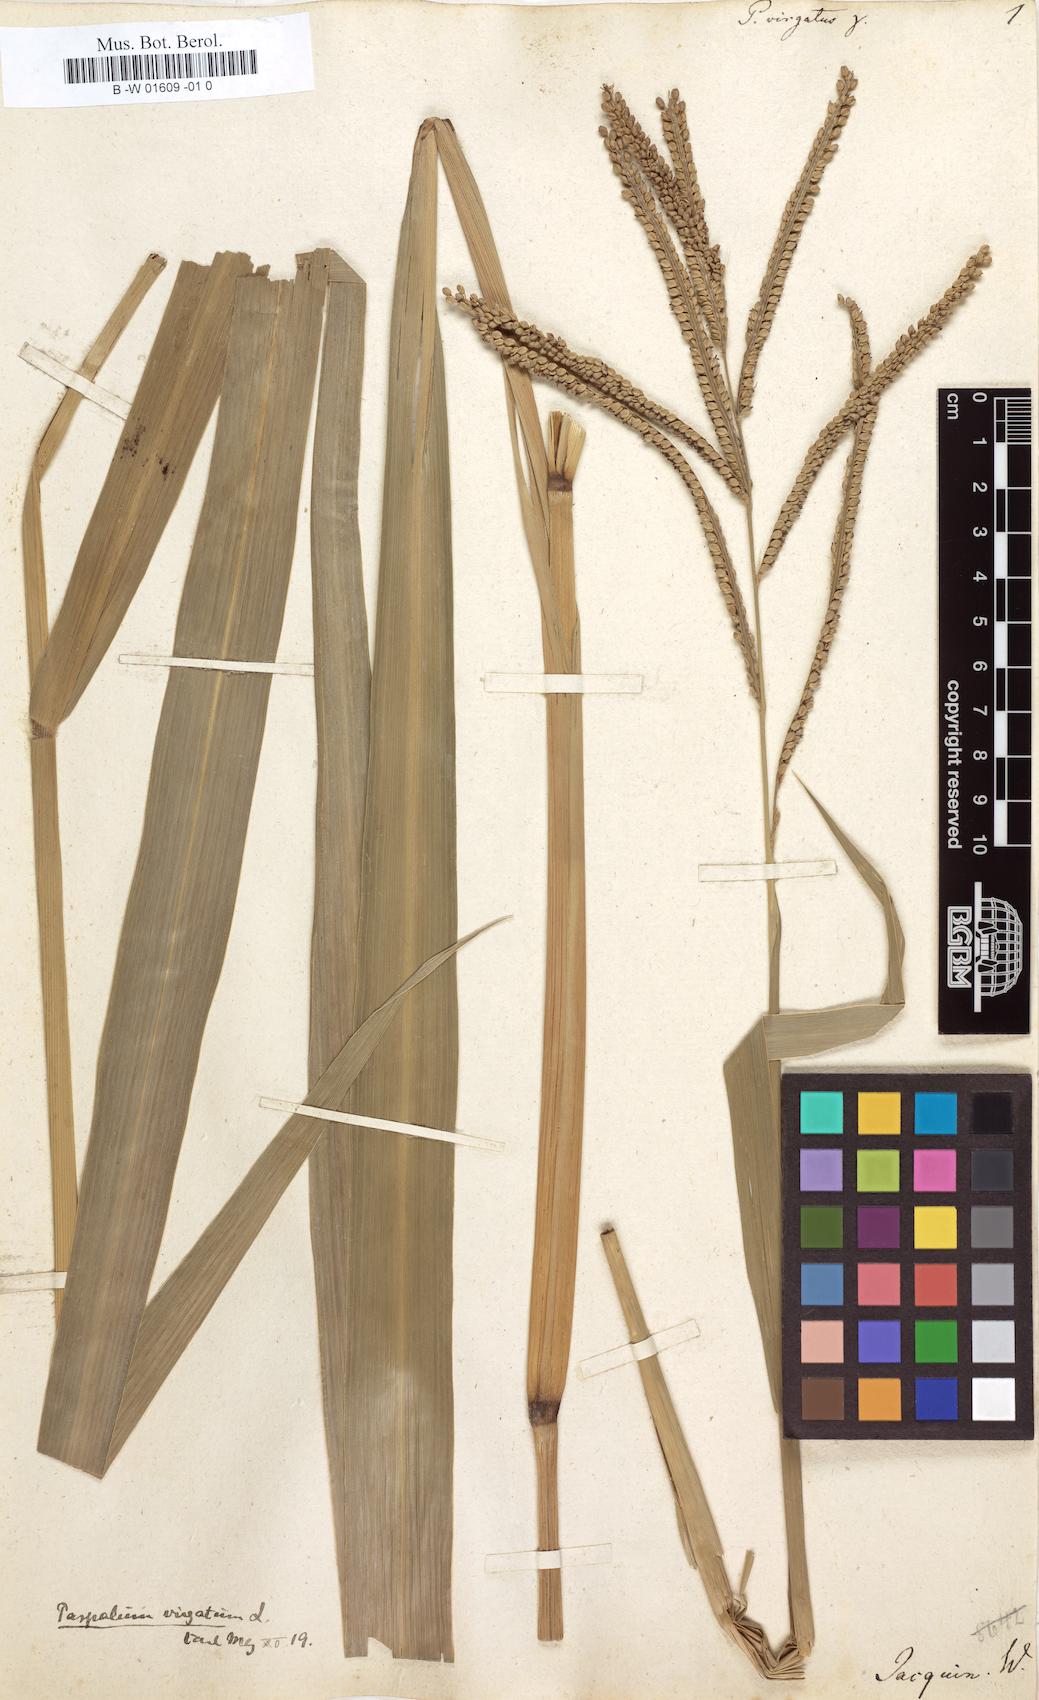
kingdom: Plantae
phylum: Tracheophyta
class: Liliopsida
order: Poales
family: Poaceae
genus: Paspalum
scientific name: Paspalum virgatum
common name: Talquezal
